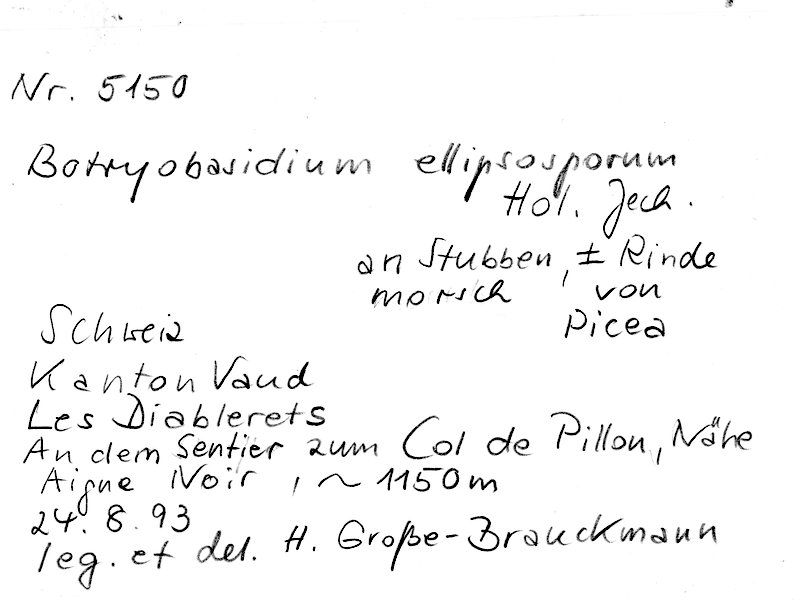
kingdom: Fungi
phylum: Basidiomycota
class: Agaricomycetes
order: Cantharellales
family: Botryobasidiaceae
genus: Botryobasidium
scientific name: Botryobasidium ellipsosporum
